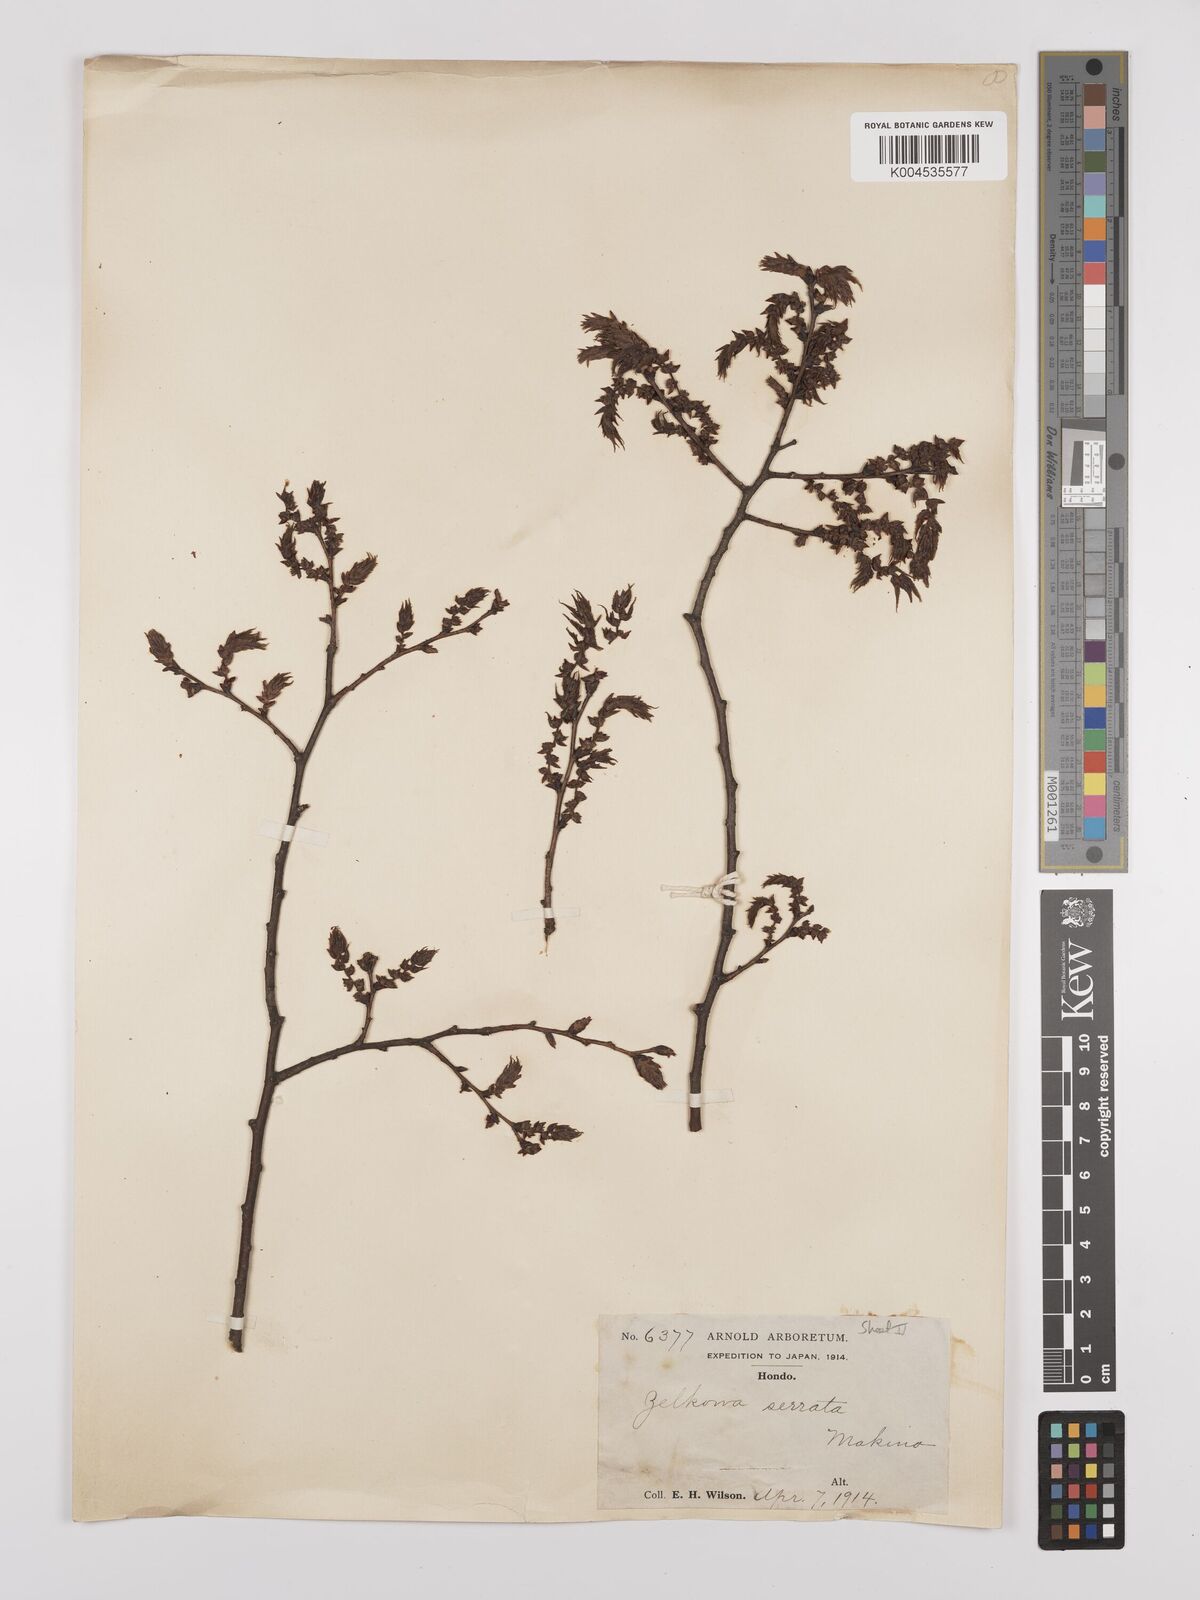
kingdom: Plantae
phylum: Tracheophyta
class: Magnoliopsida
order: Rosales
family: Ulmaceae
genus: Zelkova
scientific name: Zelkova
